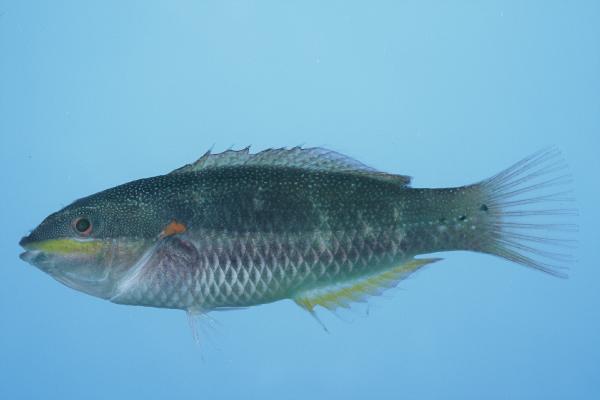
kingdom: Animalia
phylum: Chordata
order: Perciformes
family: Labridae
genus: Stethojulis
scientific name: Stethojulis albovittata
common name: Bluelined wrasse
